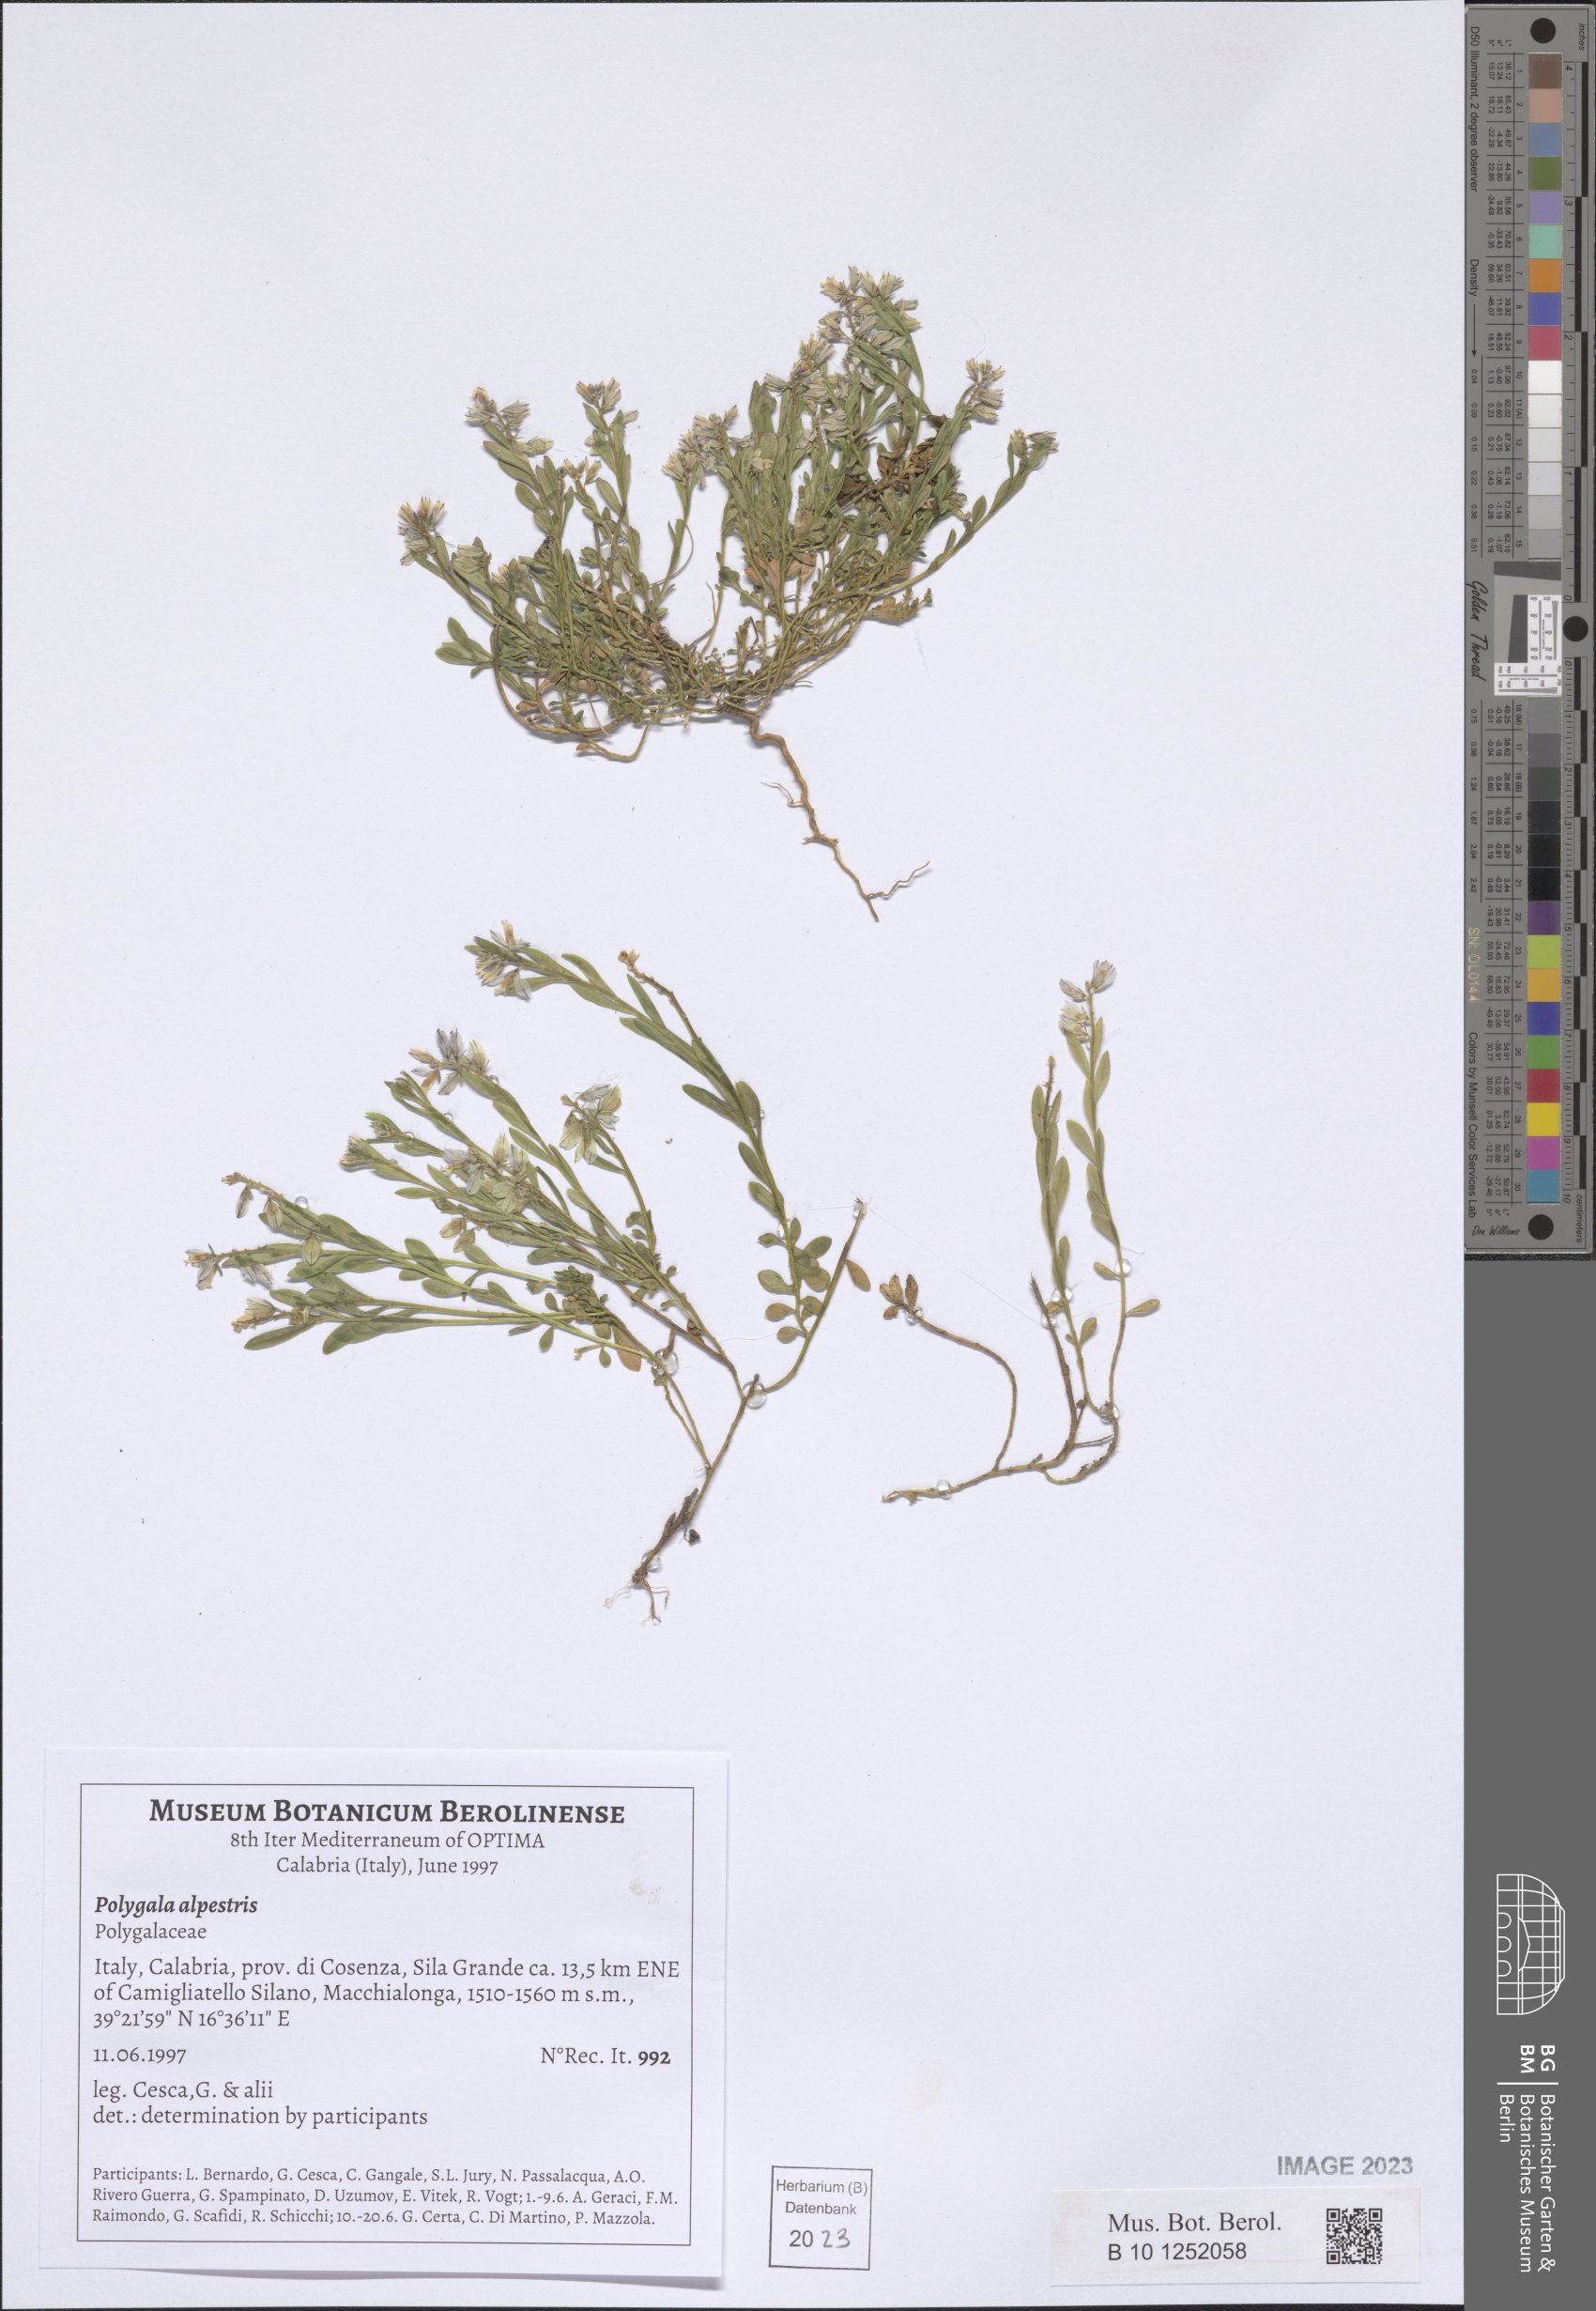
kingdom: Plantae
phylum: Tracheophyta
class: Magnoliopsida
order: Fabales
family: Polygalaceae
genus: Polygala
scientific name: Polygala alpestris
